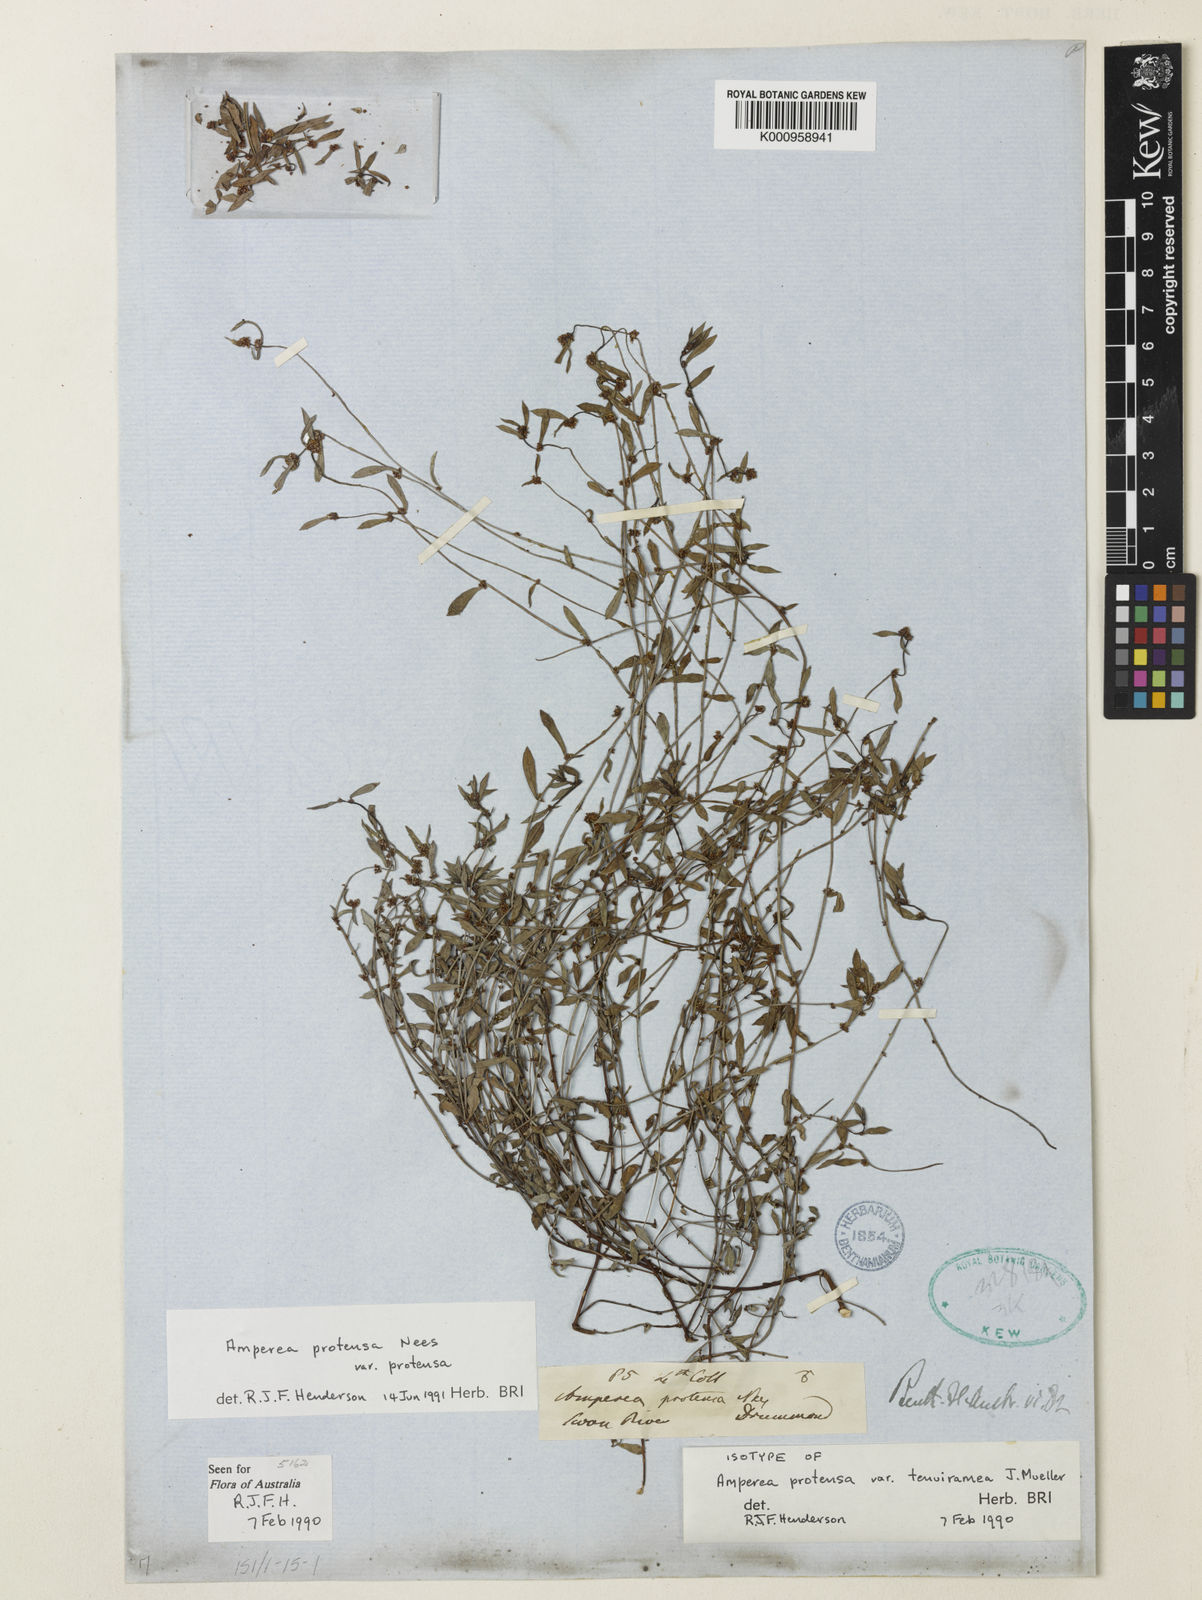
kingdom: Plantae
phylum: Tracheophyta
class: Magnoliopsida
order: Malpighiales
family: Euphorbiaceae
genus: Amperea
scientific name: Amperea protensa
